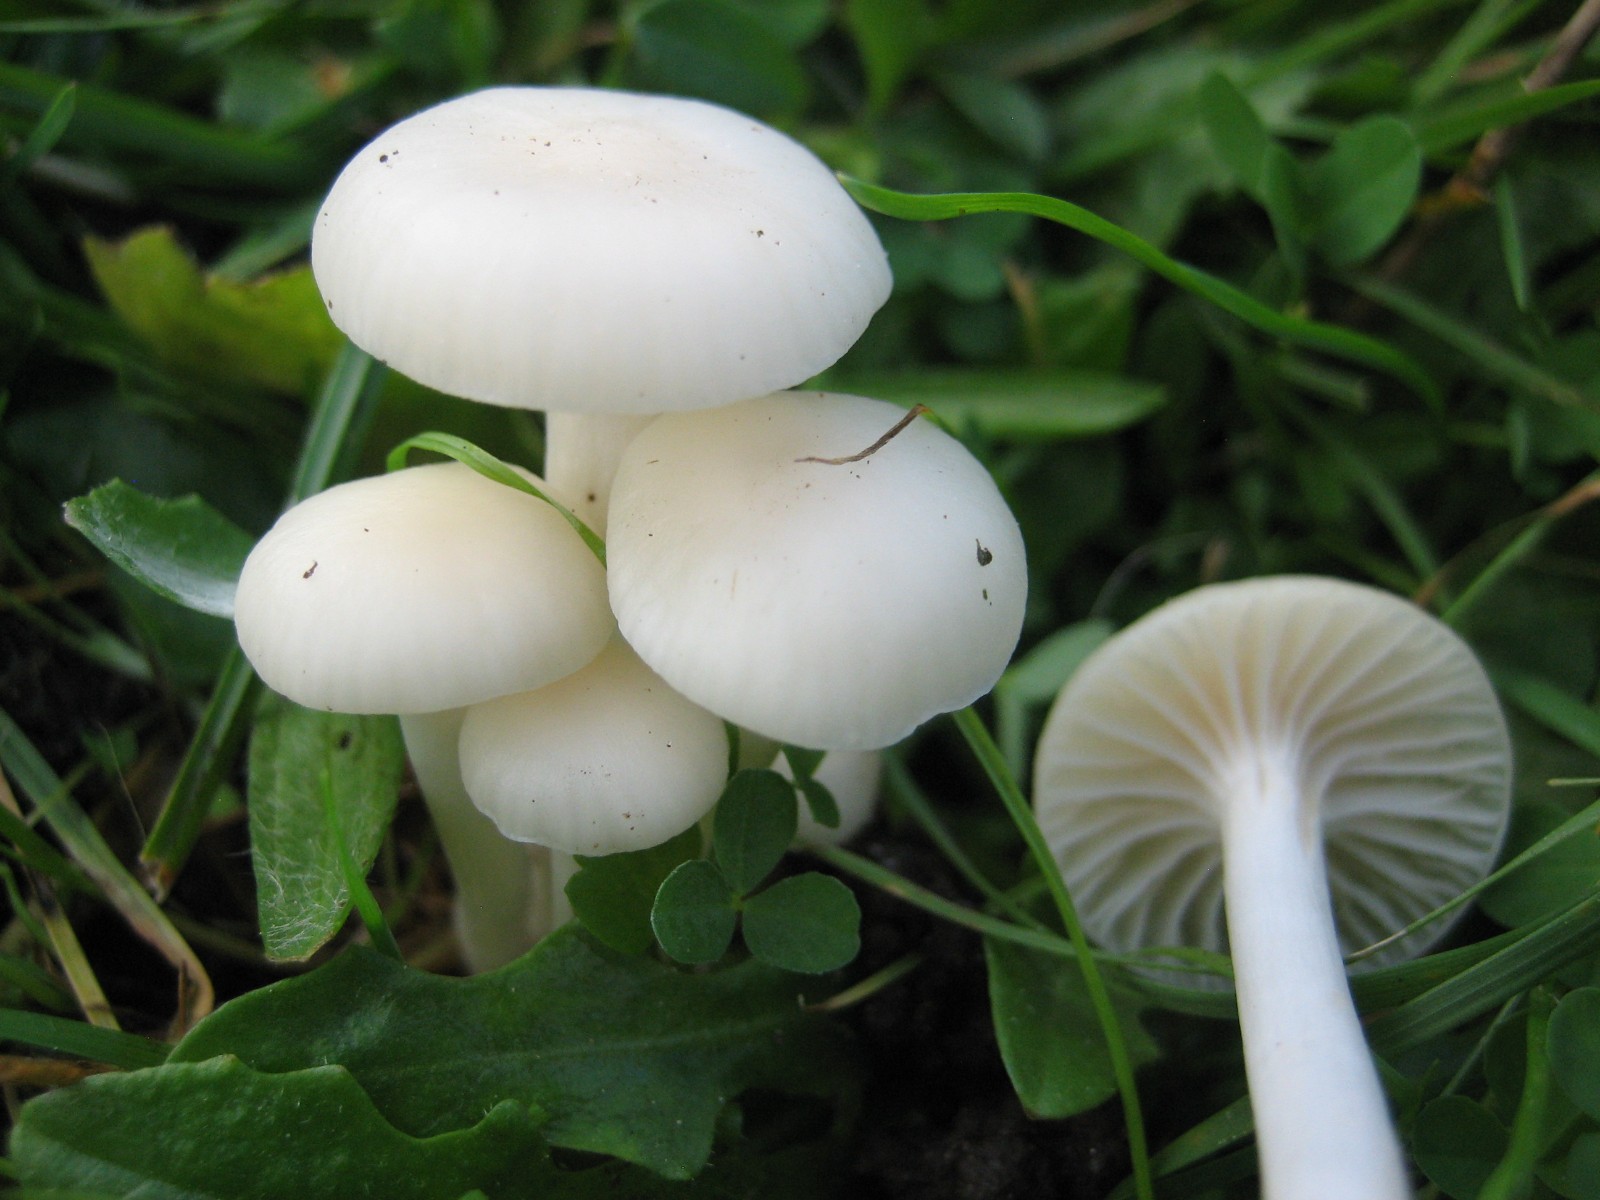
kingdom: Fungi
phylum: Basidiomycota
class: Agaricomycetes
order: Agaricales
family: Hygrophoraceae
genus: Cuphophyllus
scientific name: Cuphophyllus virgineus
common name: snehvid vokshat
